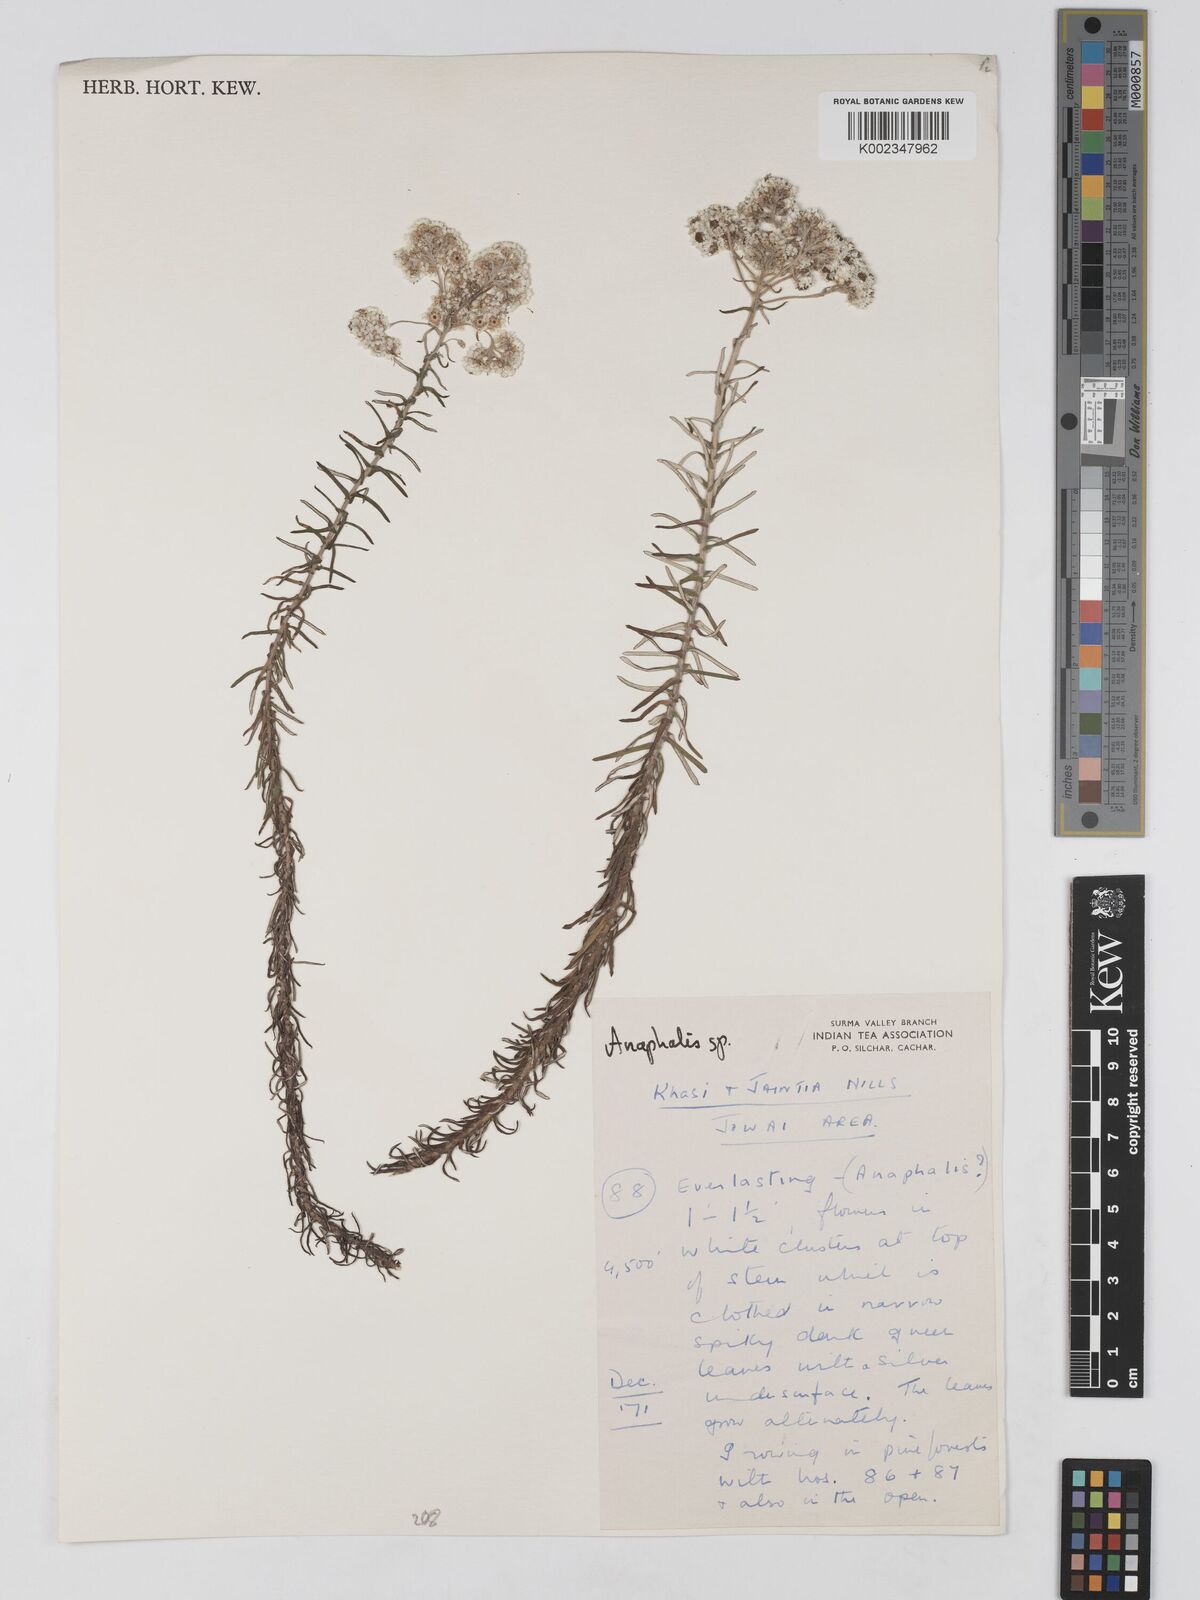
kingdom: Plantae
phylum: Tracheophyta
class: Magnoliopsida
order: Asterales
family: Asteraceae
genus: Anaphalis
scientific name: Anaphalis
